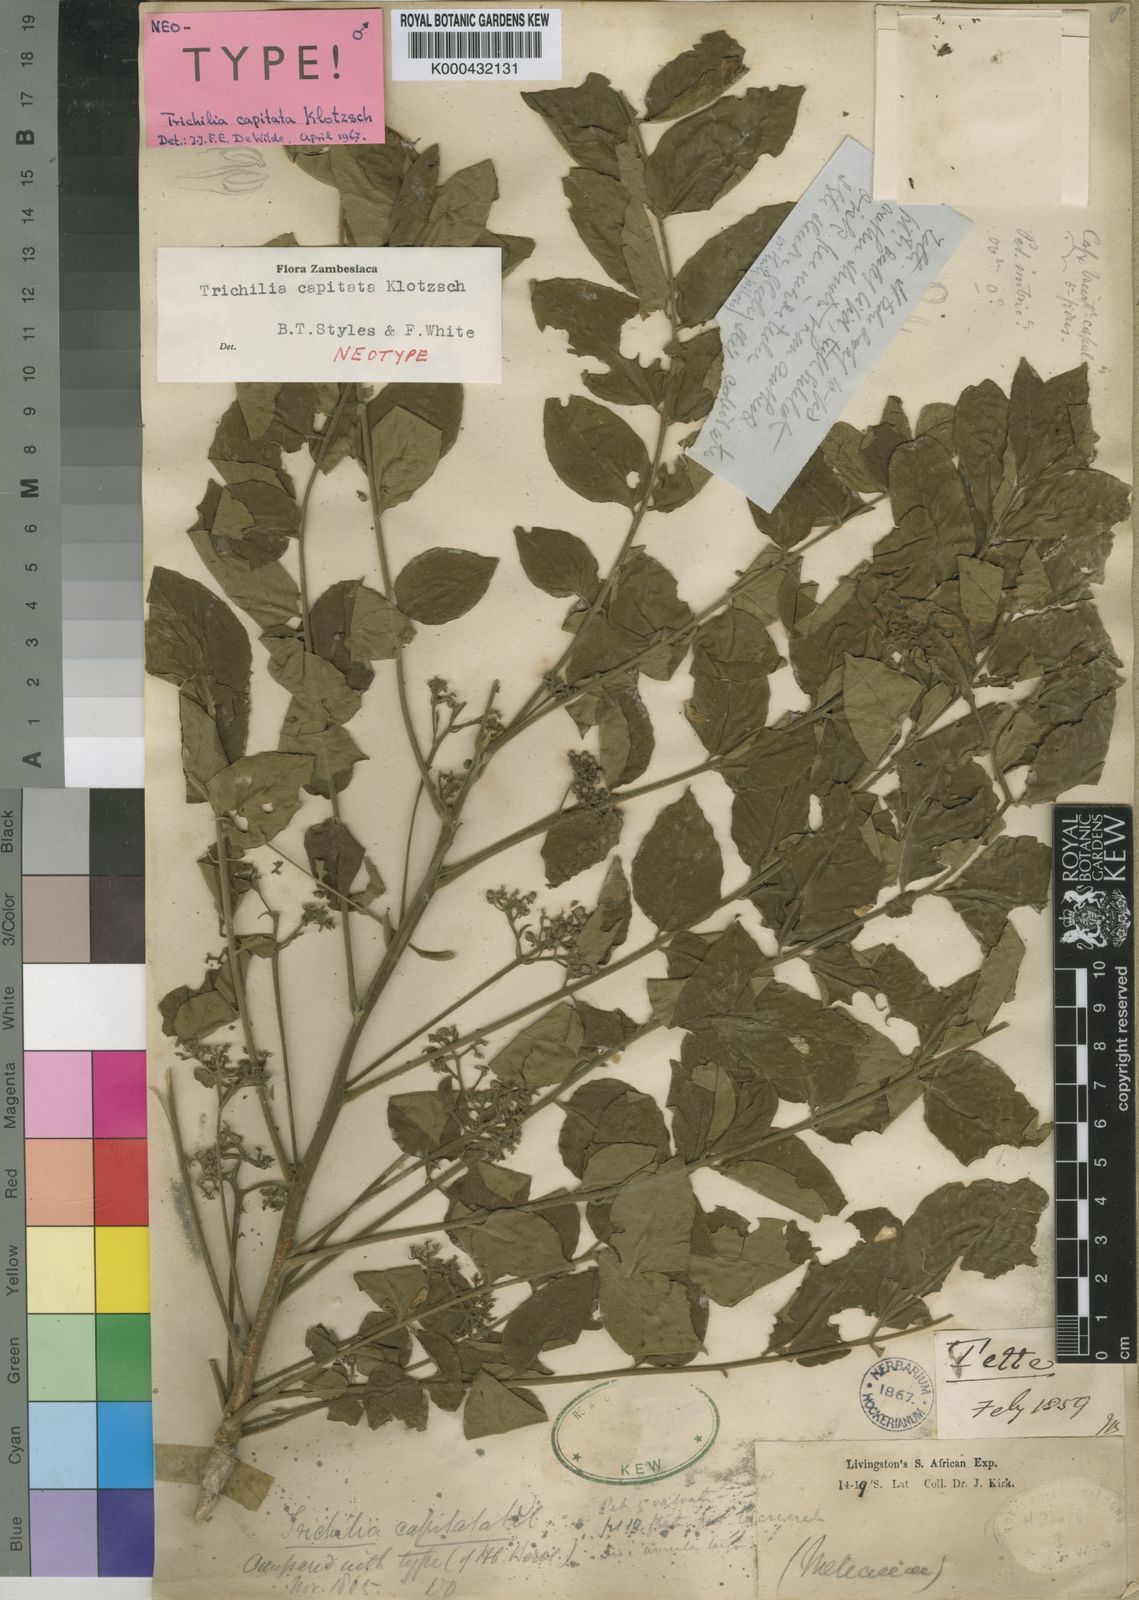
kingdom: Plantae
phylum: Tracheophyta
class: Magnoliopsida
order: Sapindales
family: Meliaceae
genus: Trichilia
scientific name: Trichilia capitata
